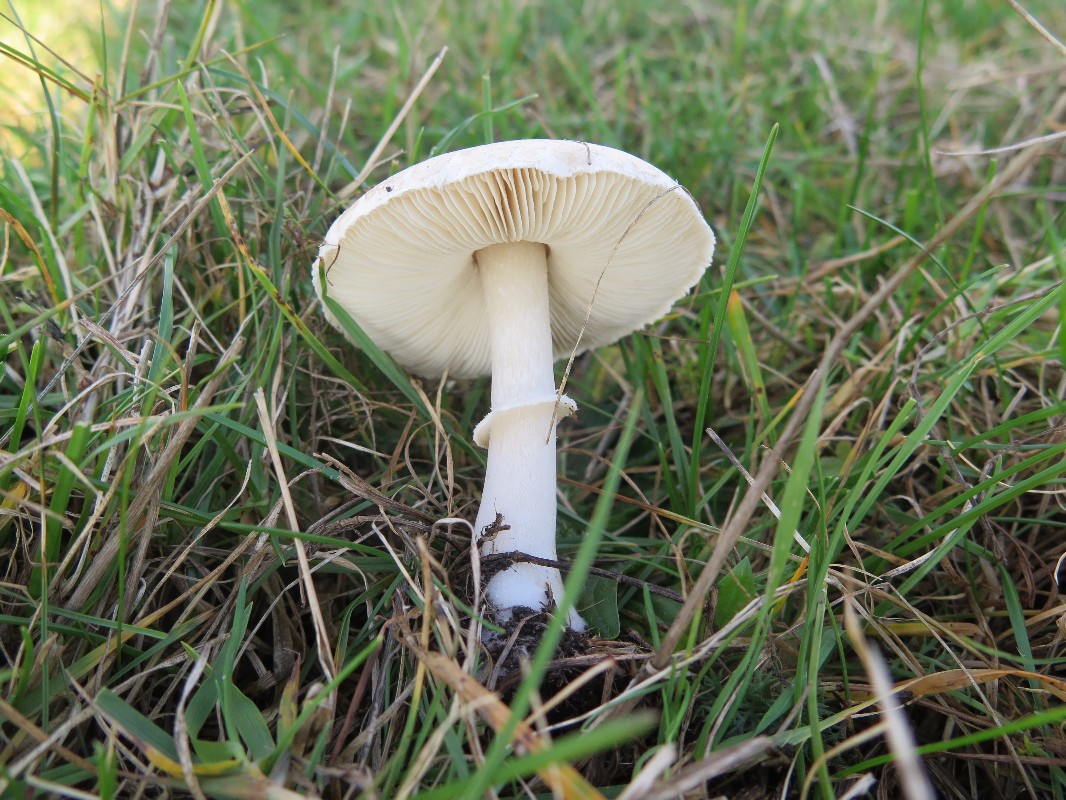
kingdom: Fungi
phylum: Basidiomycota
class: Agaricomycetes
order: Agaricales
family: Agaricaceae
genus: Leucoagaricus
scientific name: Leucoagaricus leucothites
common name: rosabladet silkehat
